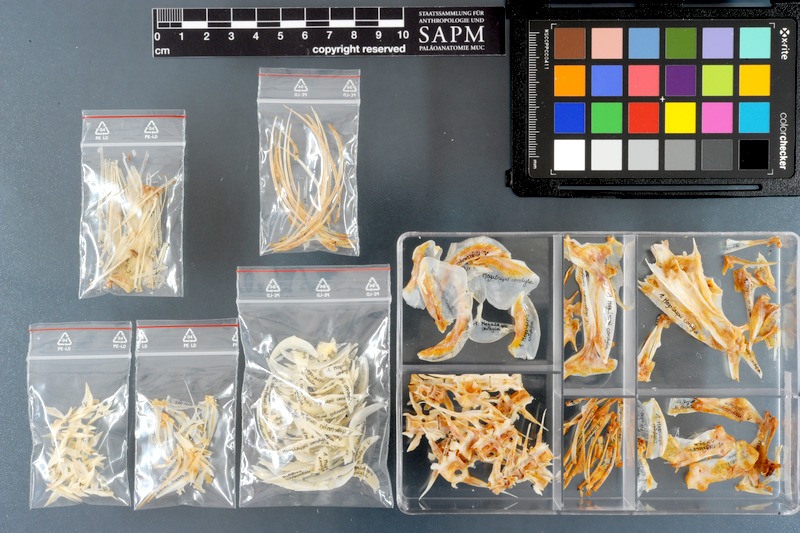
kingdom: Animalia
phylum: Chordata
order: Perciformes
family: Carangidae
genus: Megalaspis
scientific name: Megalaspis cordyla
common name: Torpedo scad
